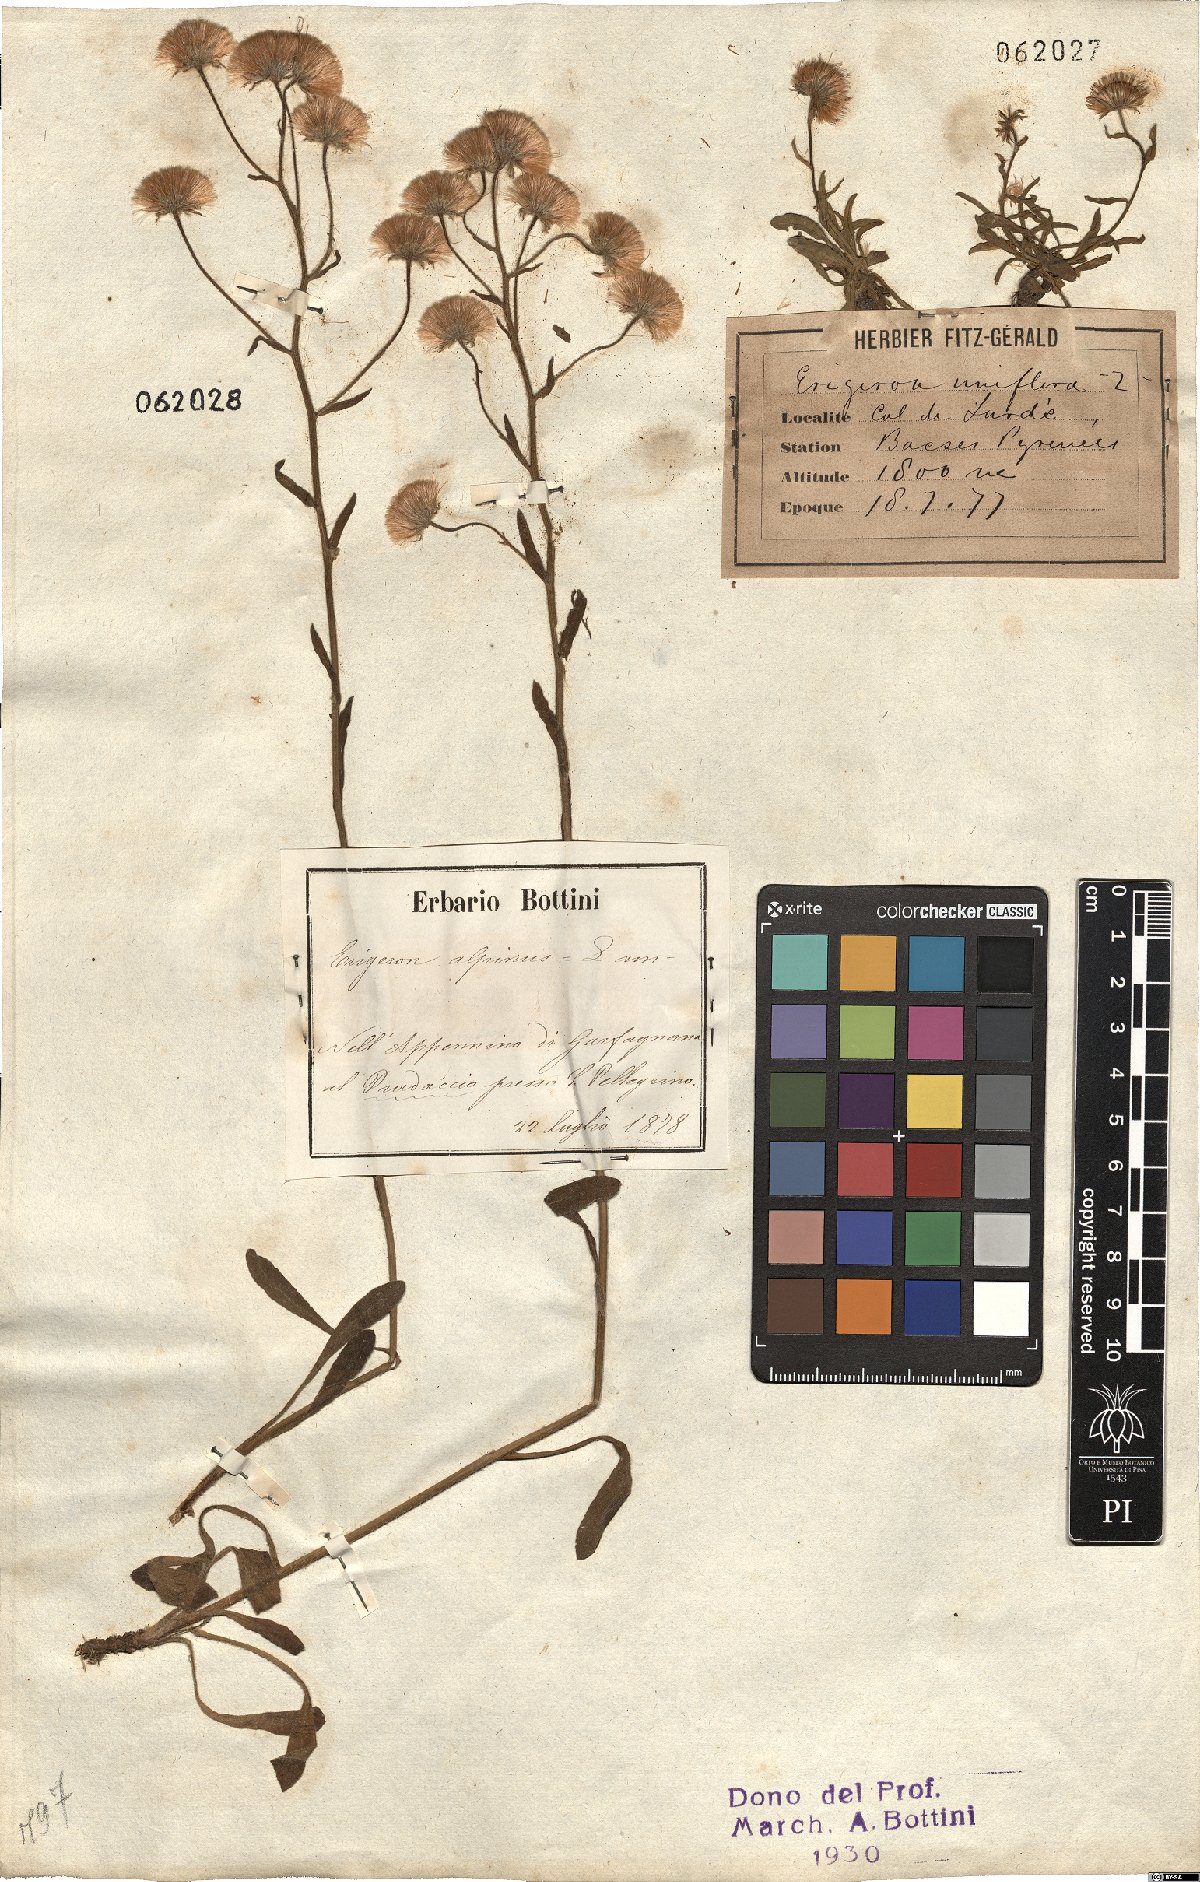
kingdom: Plantae
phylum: Tracheophyta
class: Magnoliopsida
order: Asterales
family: Asteraceae
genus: Erigeron
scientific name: Erigeron uniflorus
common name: Northern daisy
